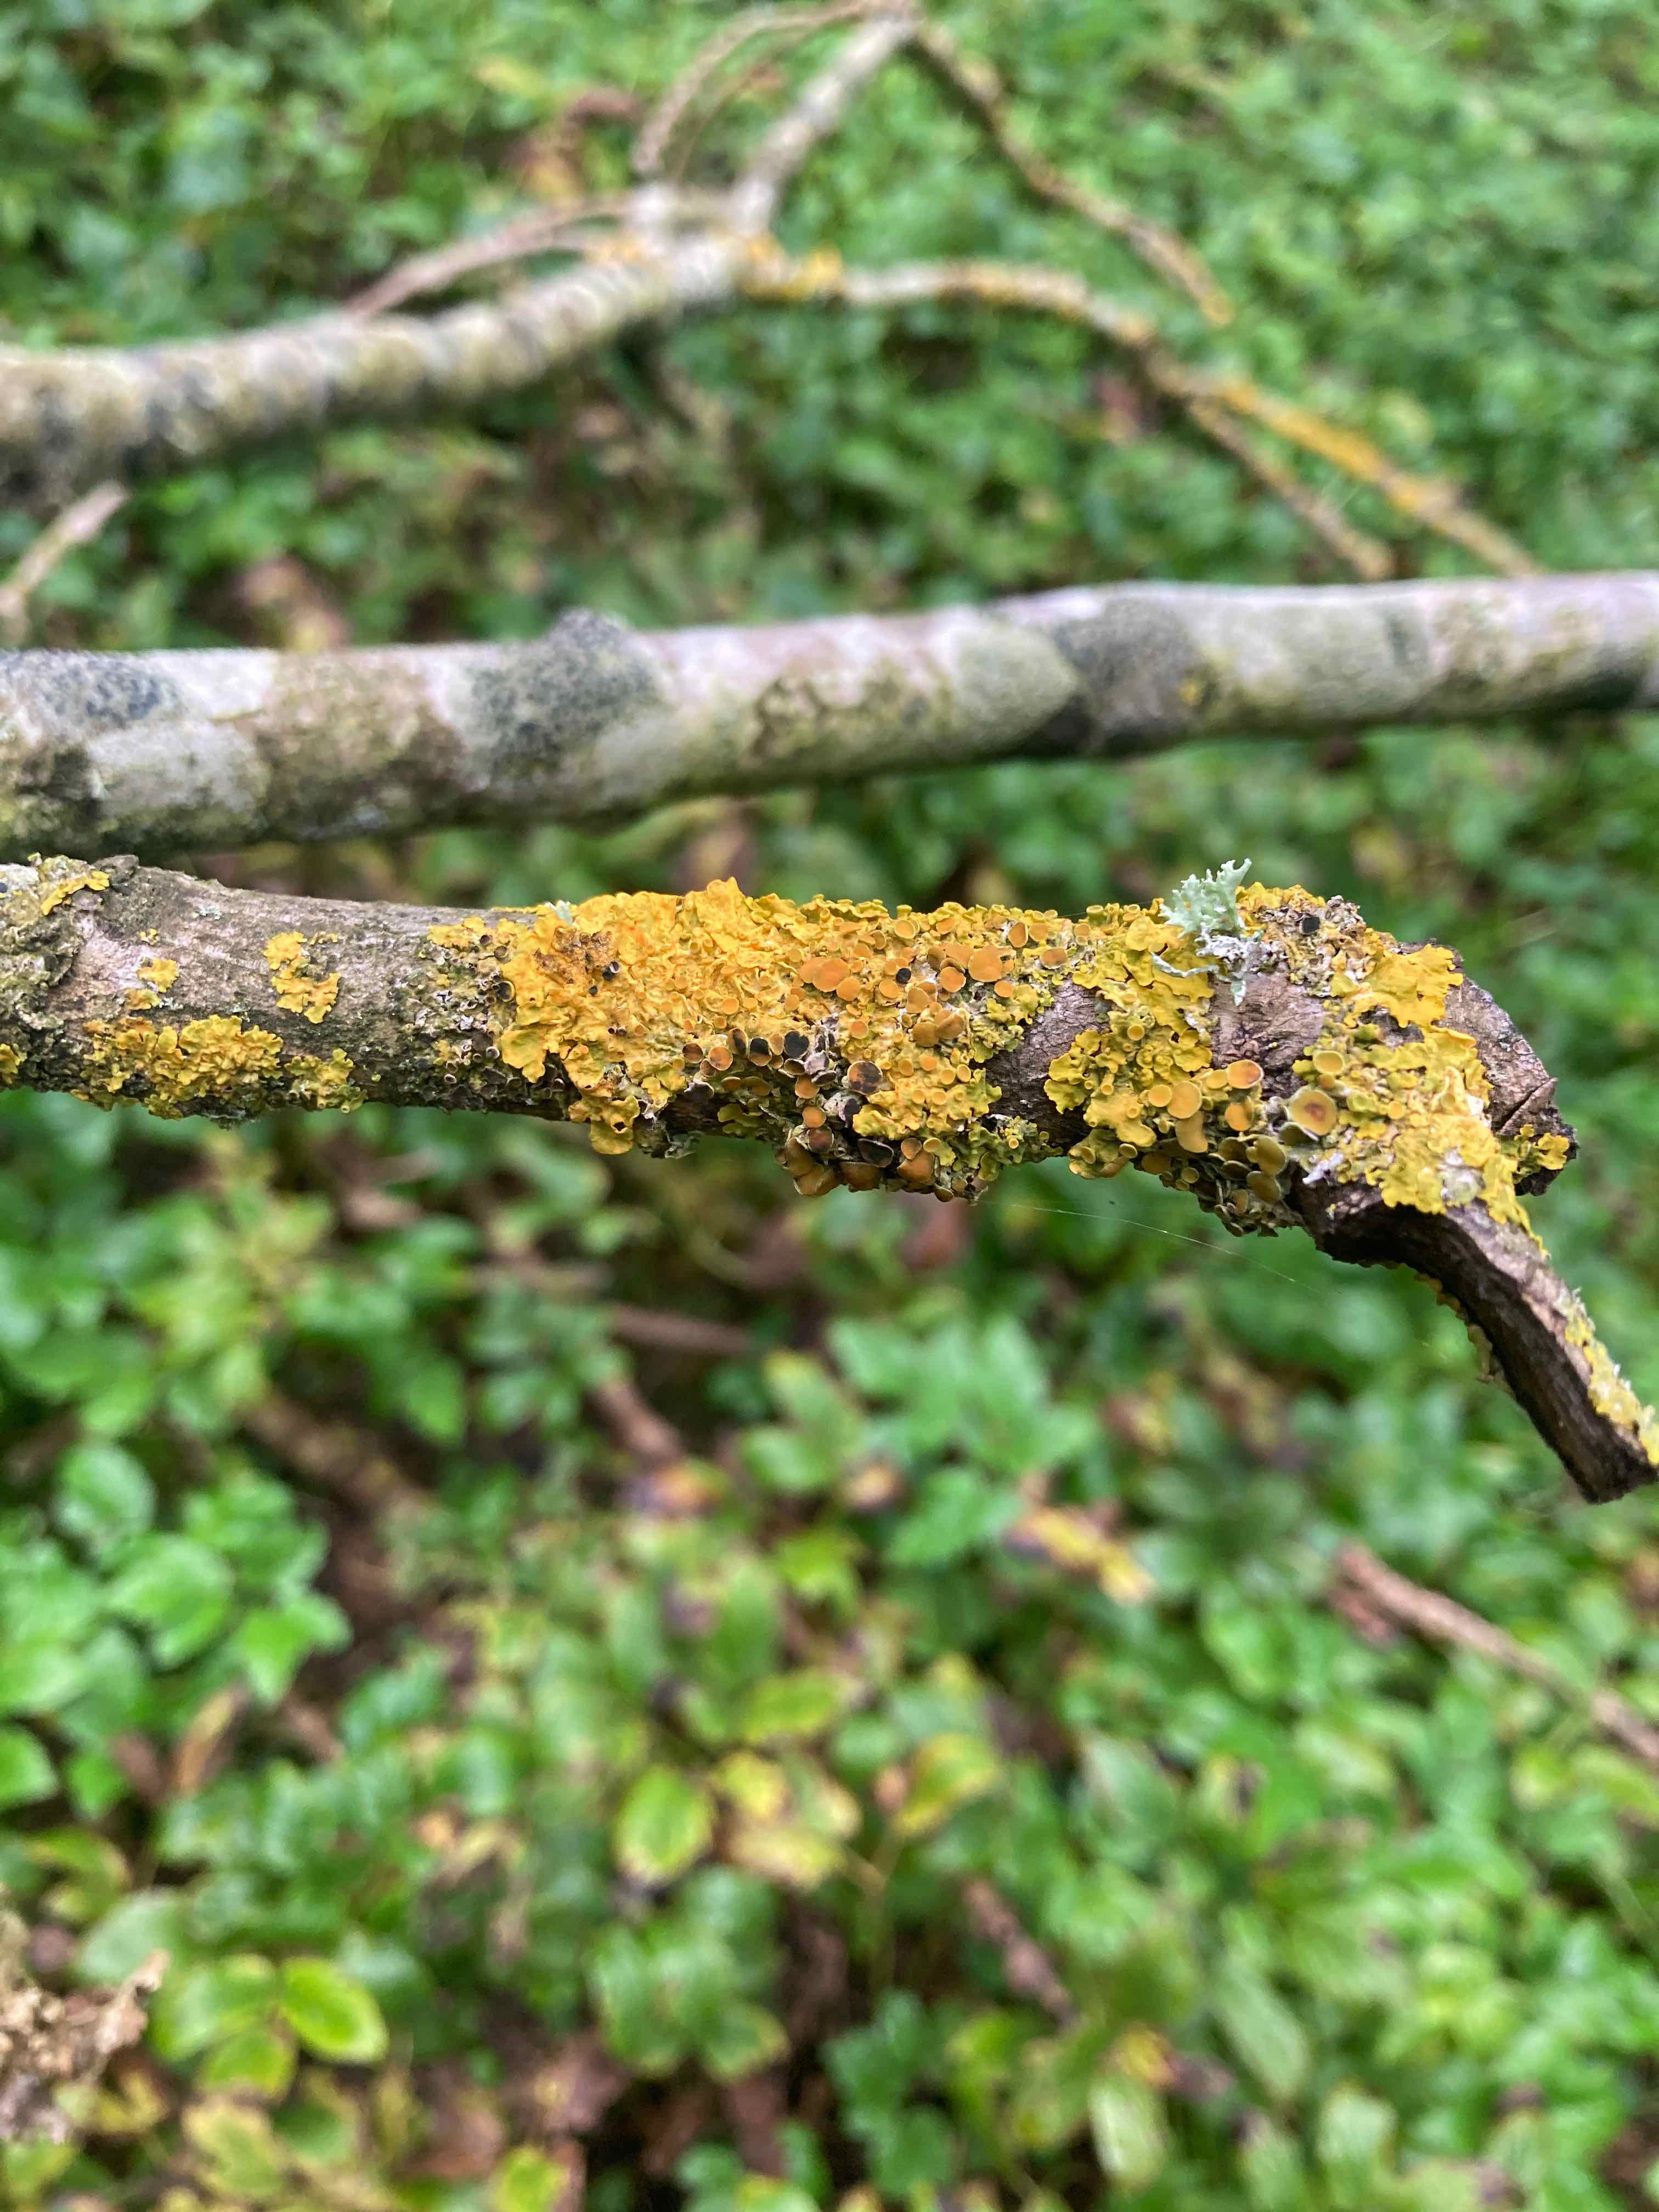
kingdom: Fungi
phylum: Ascomycota
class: Dothideomycetes
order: Mycosphaerellales
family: Teratosphaeriaceae
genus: Xanthoriicola
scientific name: Xanthoriicola physciae
